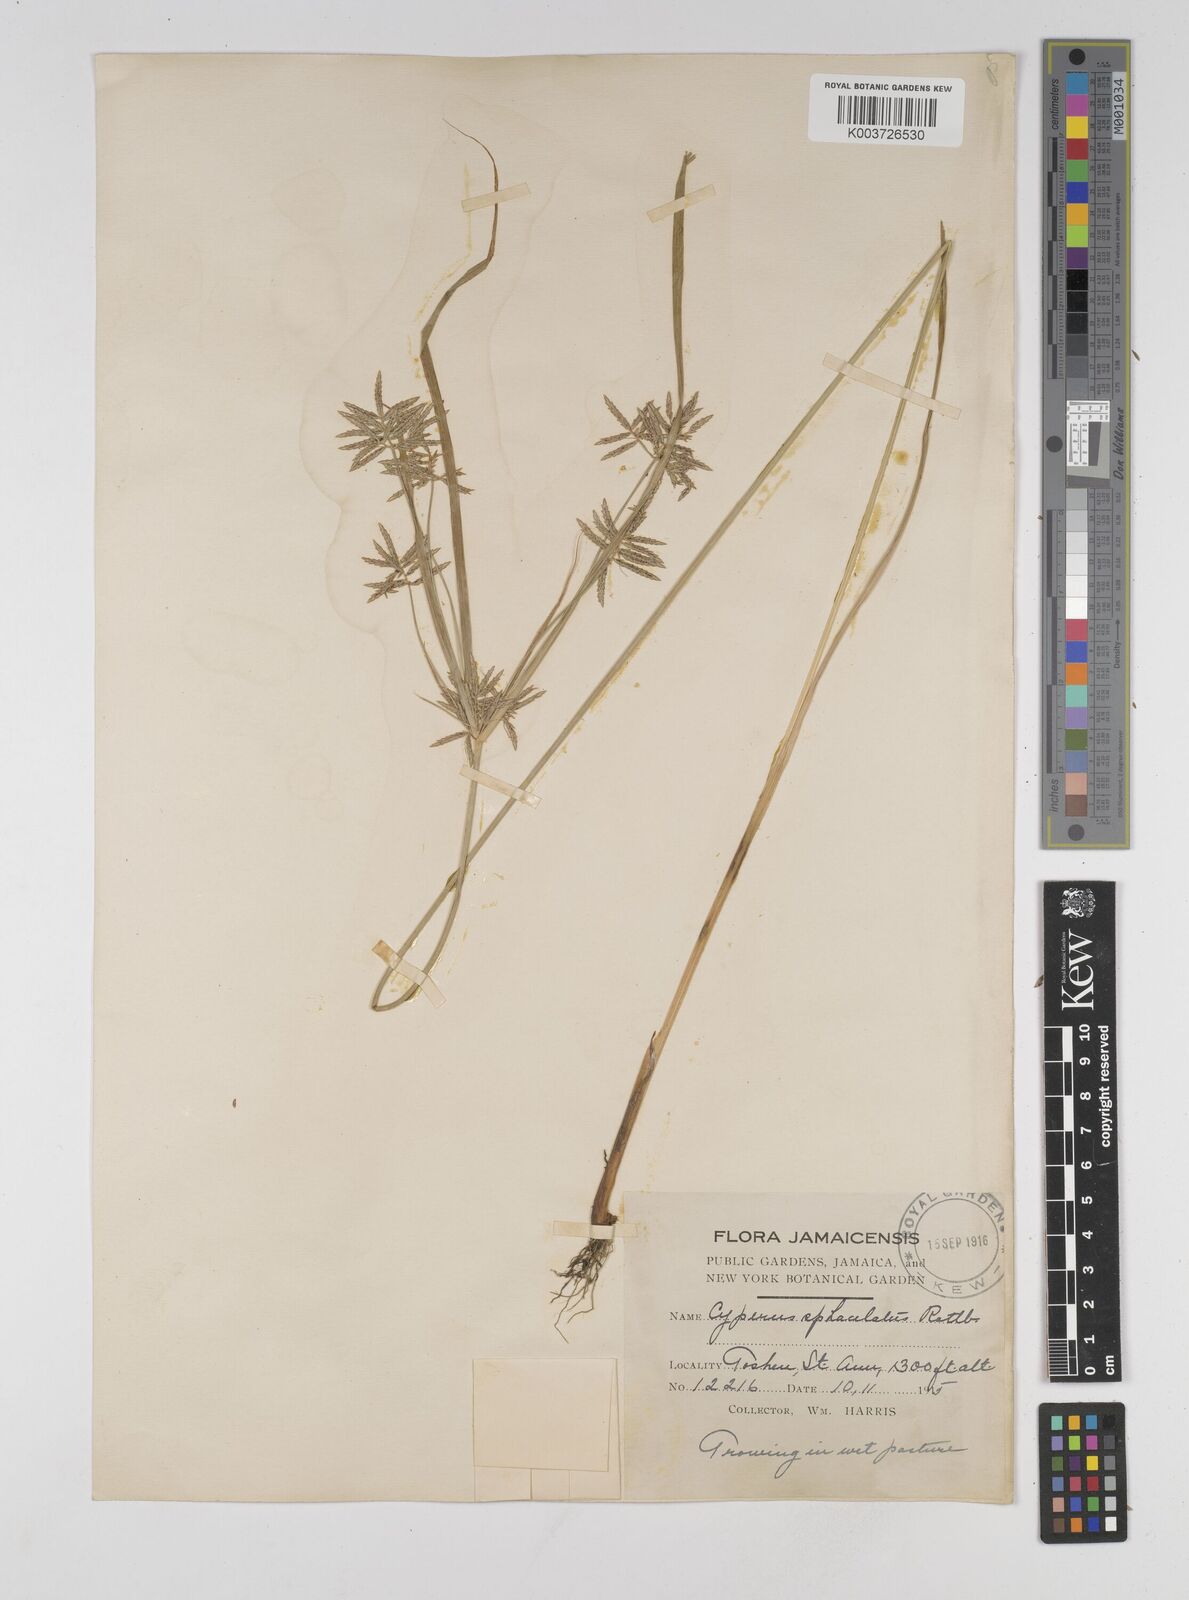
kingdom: Plantae
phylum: Tracheophyta
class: Liliopsida
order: Poales
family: Cyperaceae
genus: Cyperus
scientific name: Cyperus sphacelatus
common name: Roadside flatsedge
